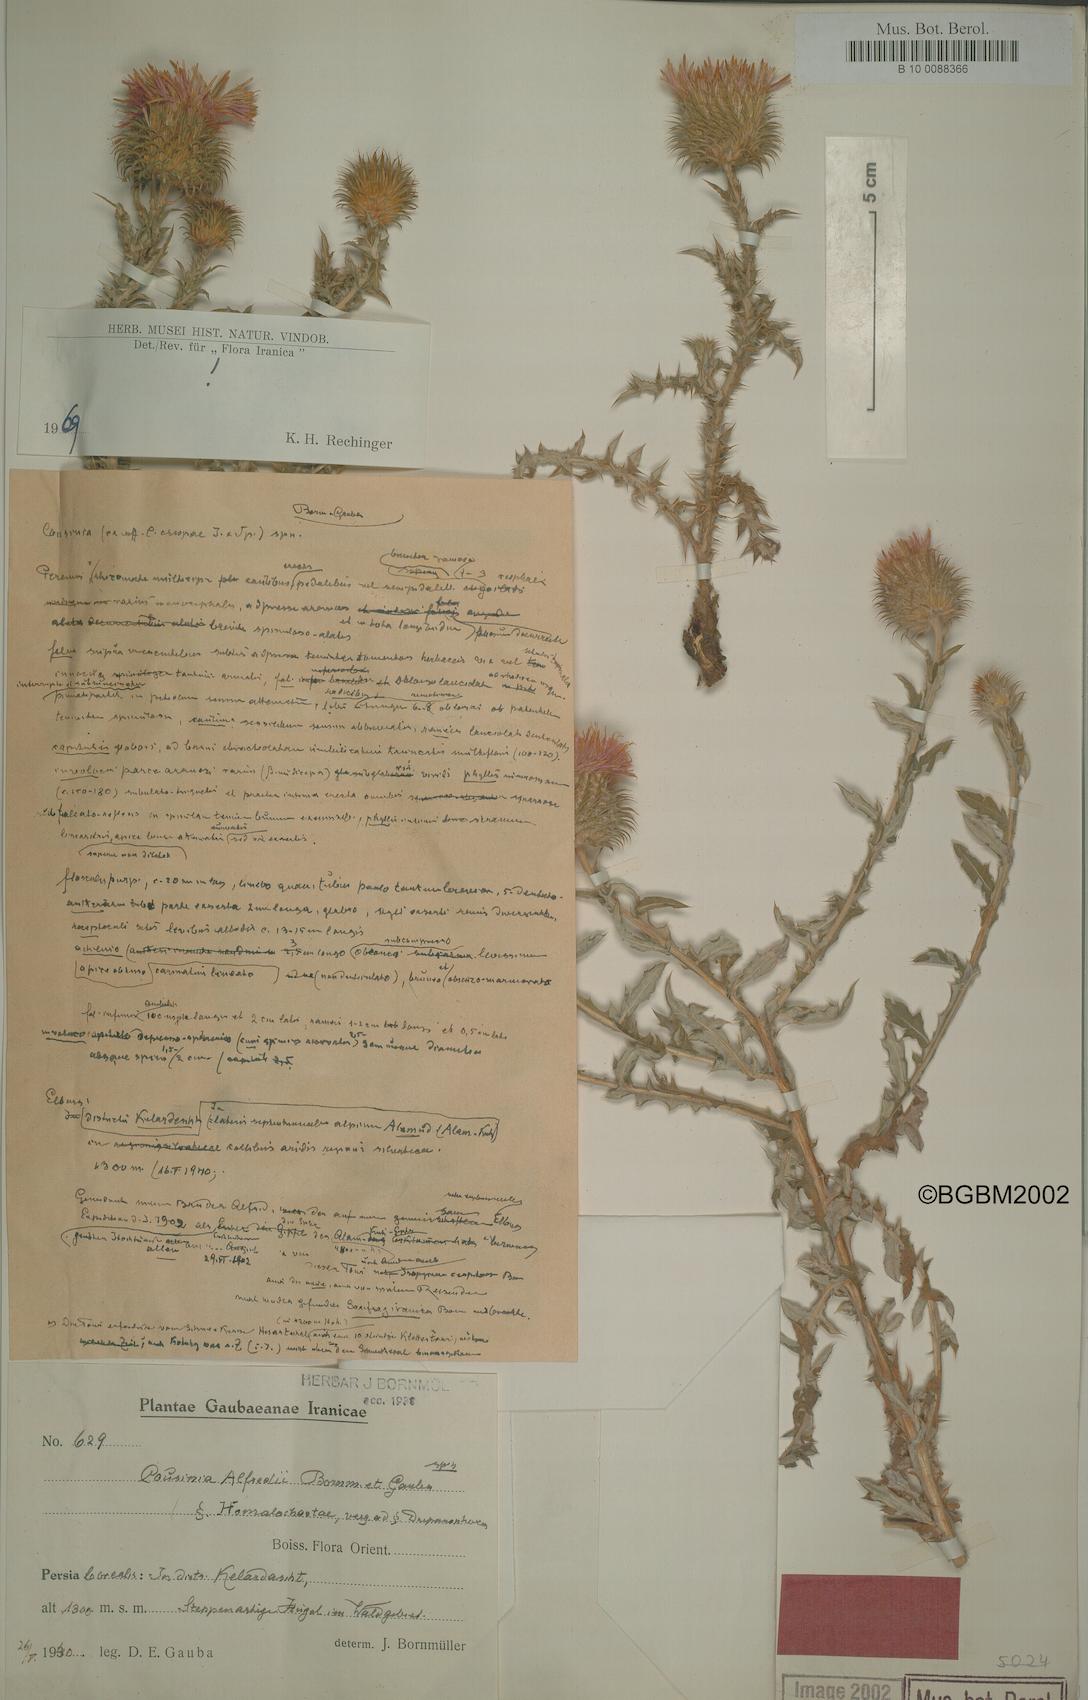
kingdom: Plantae
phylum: Tracheophyta
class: Magnoliopsida
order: Asterales
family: Asteraceae
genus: Cousinia
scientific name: Cousinia alfredii
